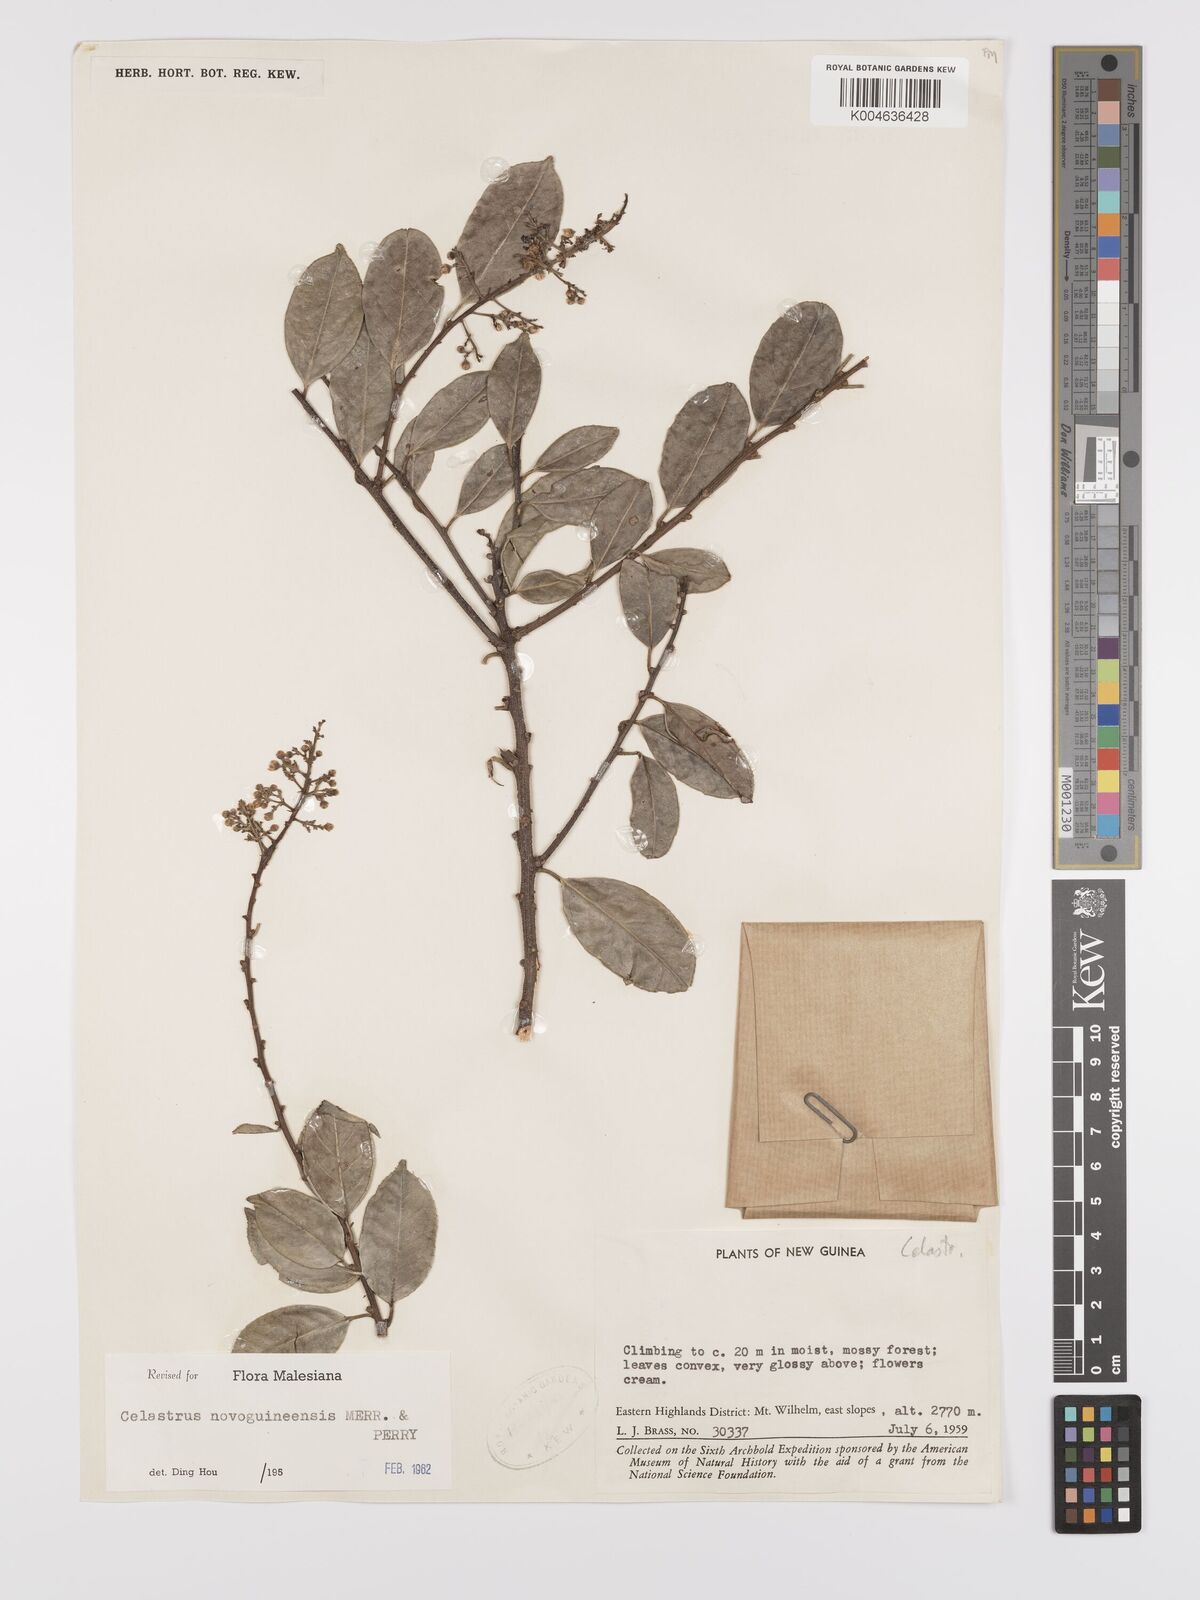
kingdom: Plantae
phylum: Tracheophyta
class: Magnoliopsida
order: Celastrales
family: Celastraceae
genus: Celastrus
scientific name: Celastrus novoguineensis
